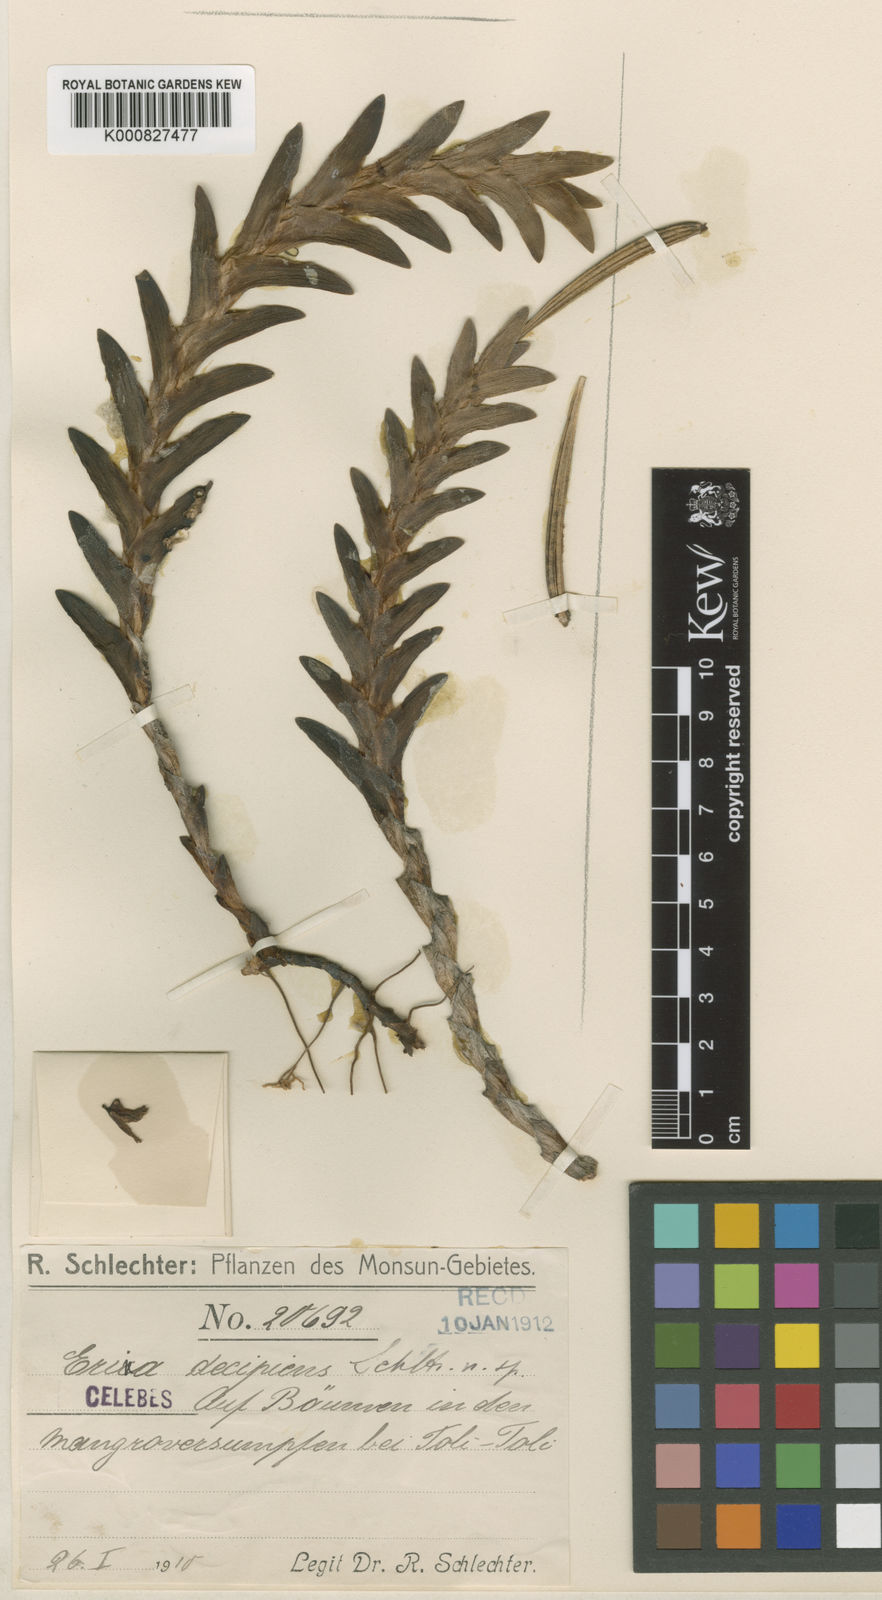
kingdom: Plantae
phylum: Tracheophyta
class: Liliopsida
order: Asparagales
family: Orchidaceae
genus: Cylindrolobus
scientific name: Cylindrolobus
